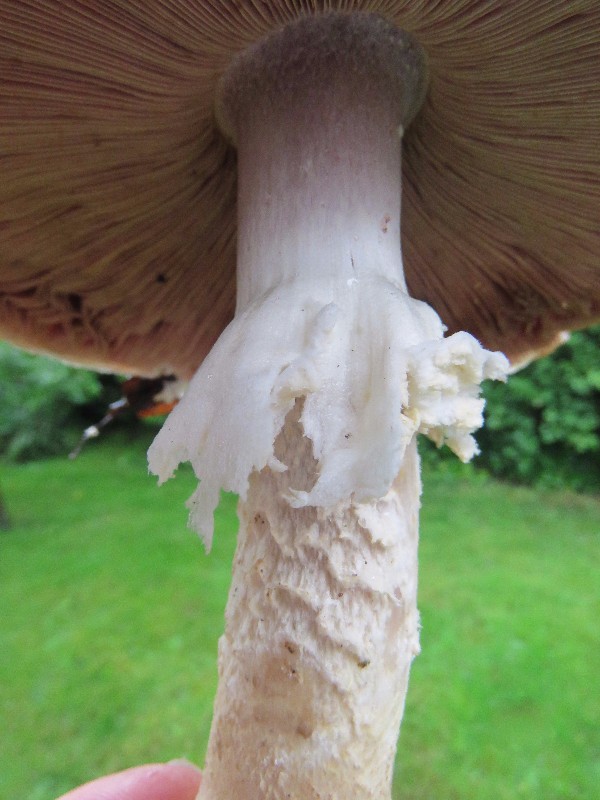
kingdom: Fungi
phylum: Basidiomycota
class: Agaricomycetes
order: Agaricales
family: Agaricaceae
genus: Agaricus
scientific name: Agaricus augustus
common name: prægtig champignon
